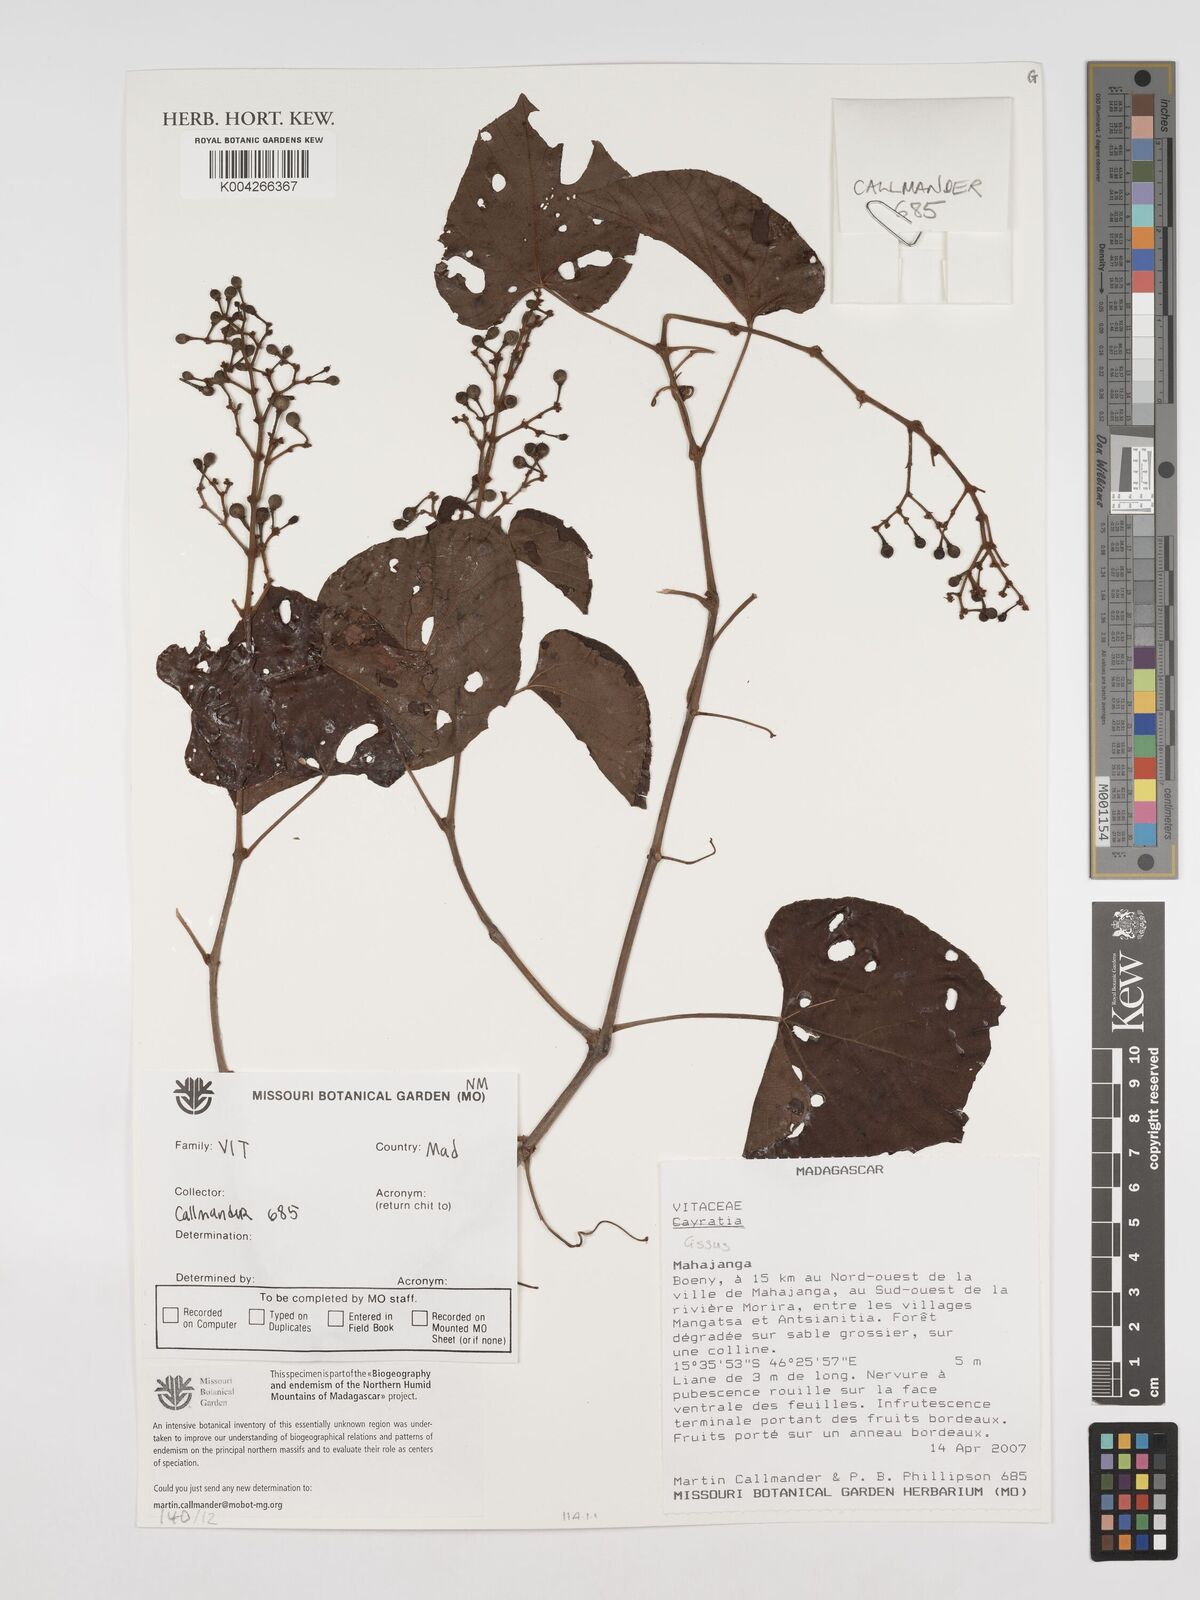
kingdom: Plantae
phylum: Tracheophyta
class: Magnoliopsida
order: Vitales
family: Vitaceae
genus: Cissus
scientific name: Cissus
